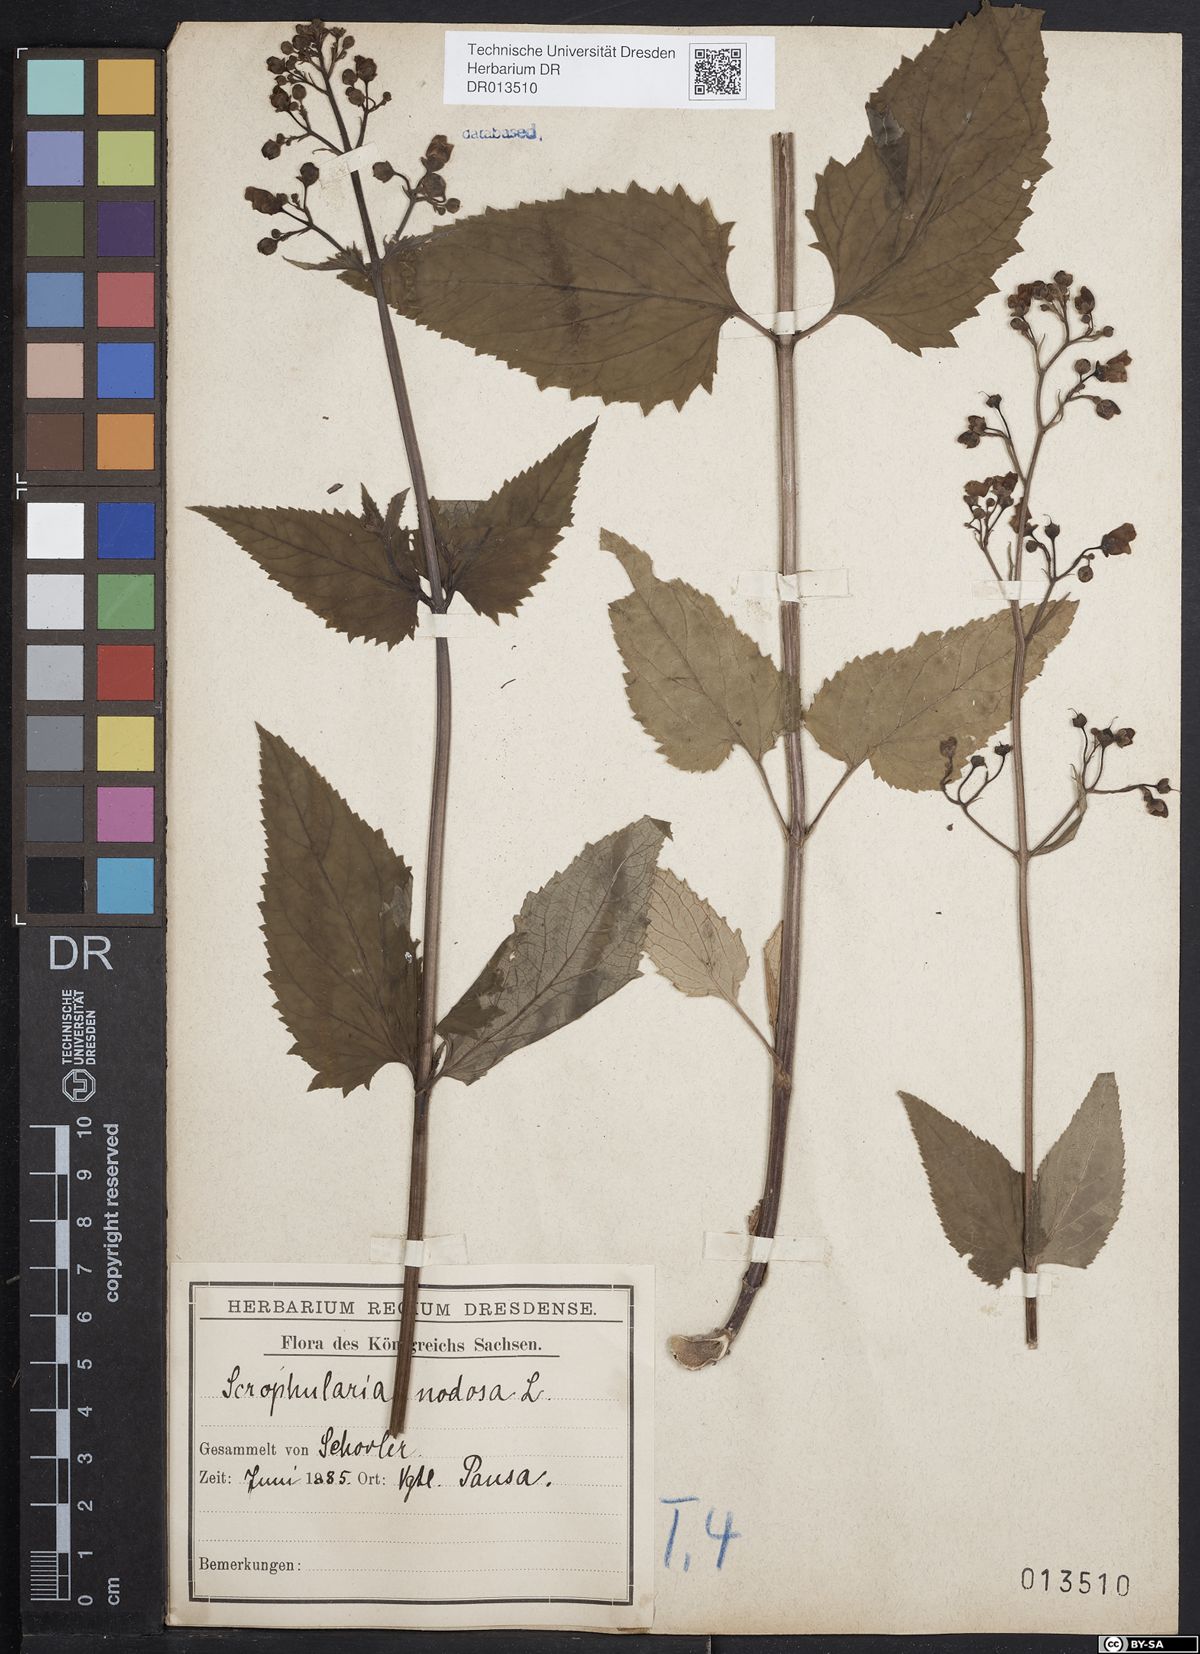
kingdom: Plantae
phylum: Tracheophyta
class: Magnoliopsida
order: Lamiales
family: Scrophulariaceae
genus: Scrophularia
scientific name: Scrophularia nodosa
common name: Common figwort
